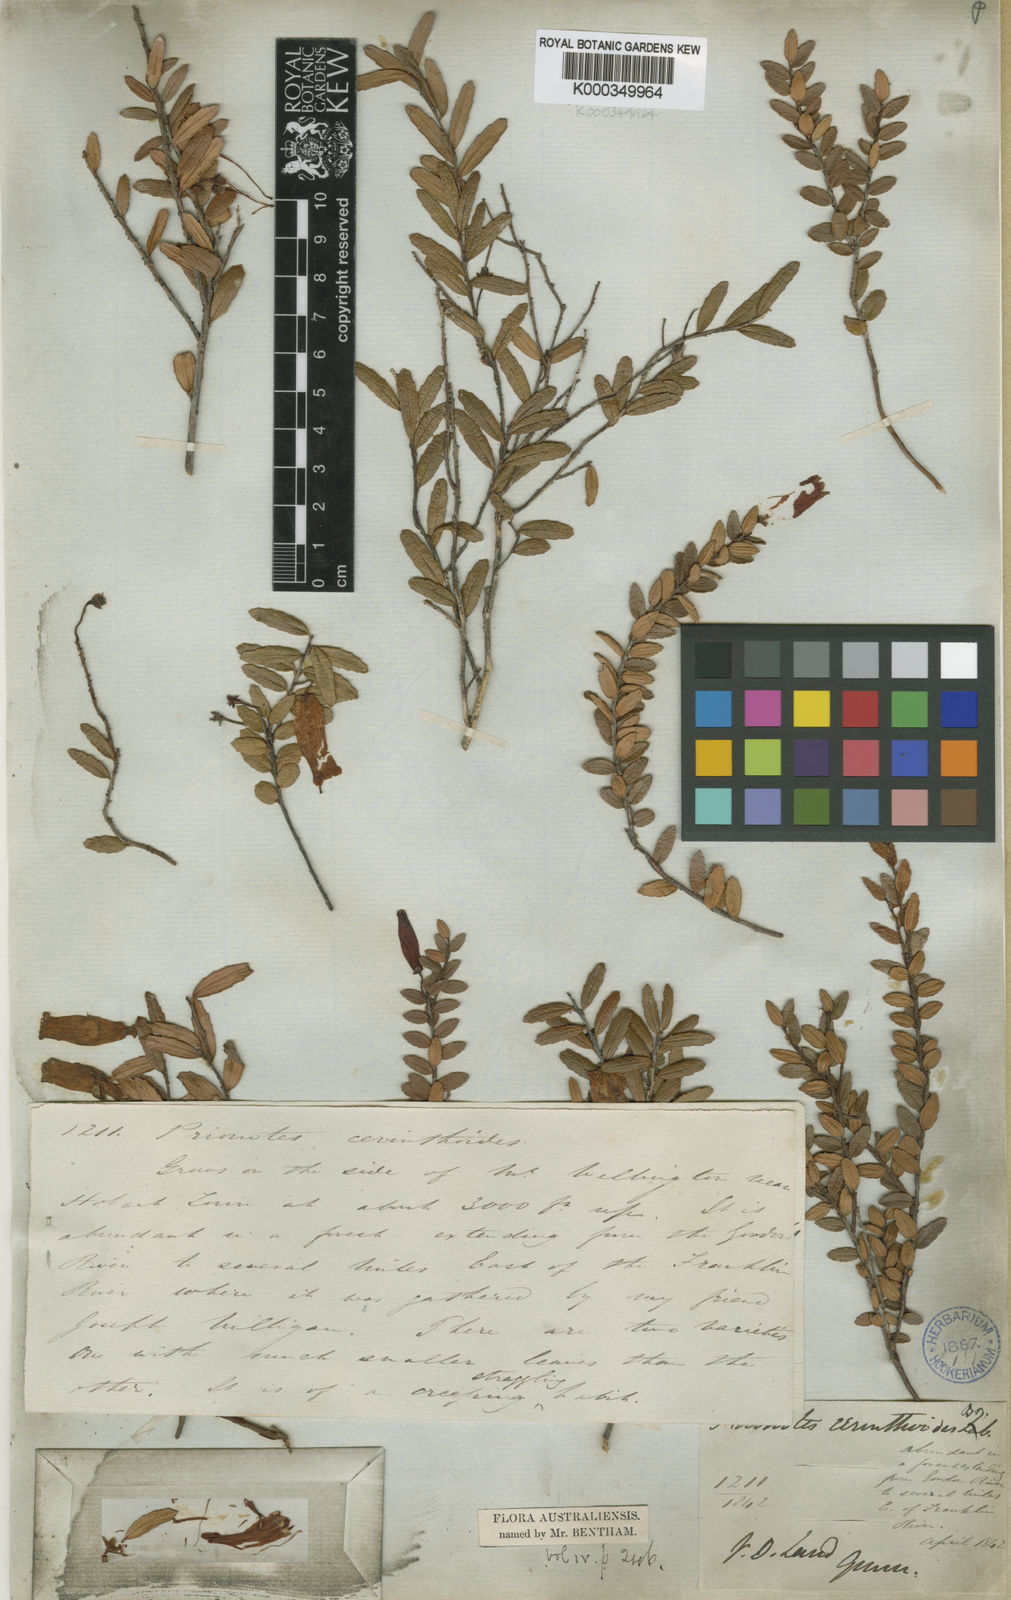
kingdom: Plantae
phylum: Tracheophyta
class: Magnoliopsida
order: Ericales
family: Ericaceae
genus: Prionotes
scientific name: Prionotes cerinthoides
